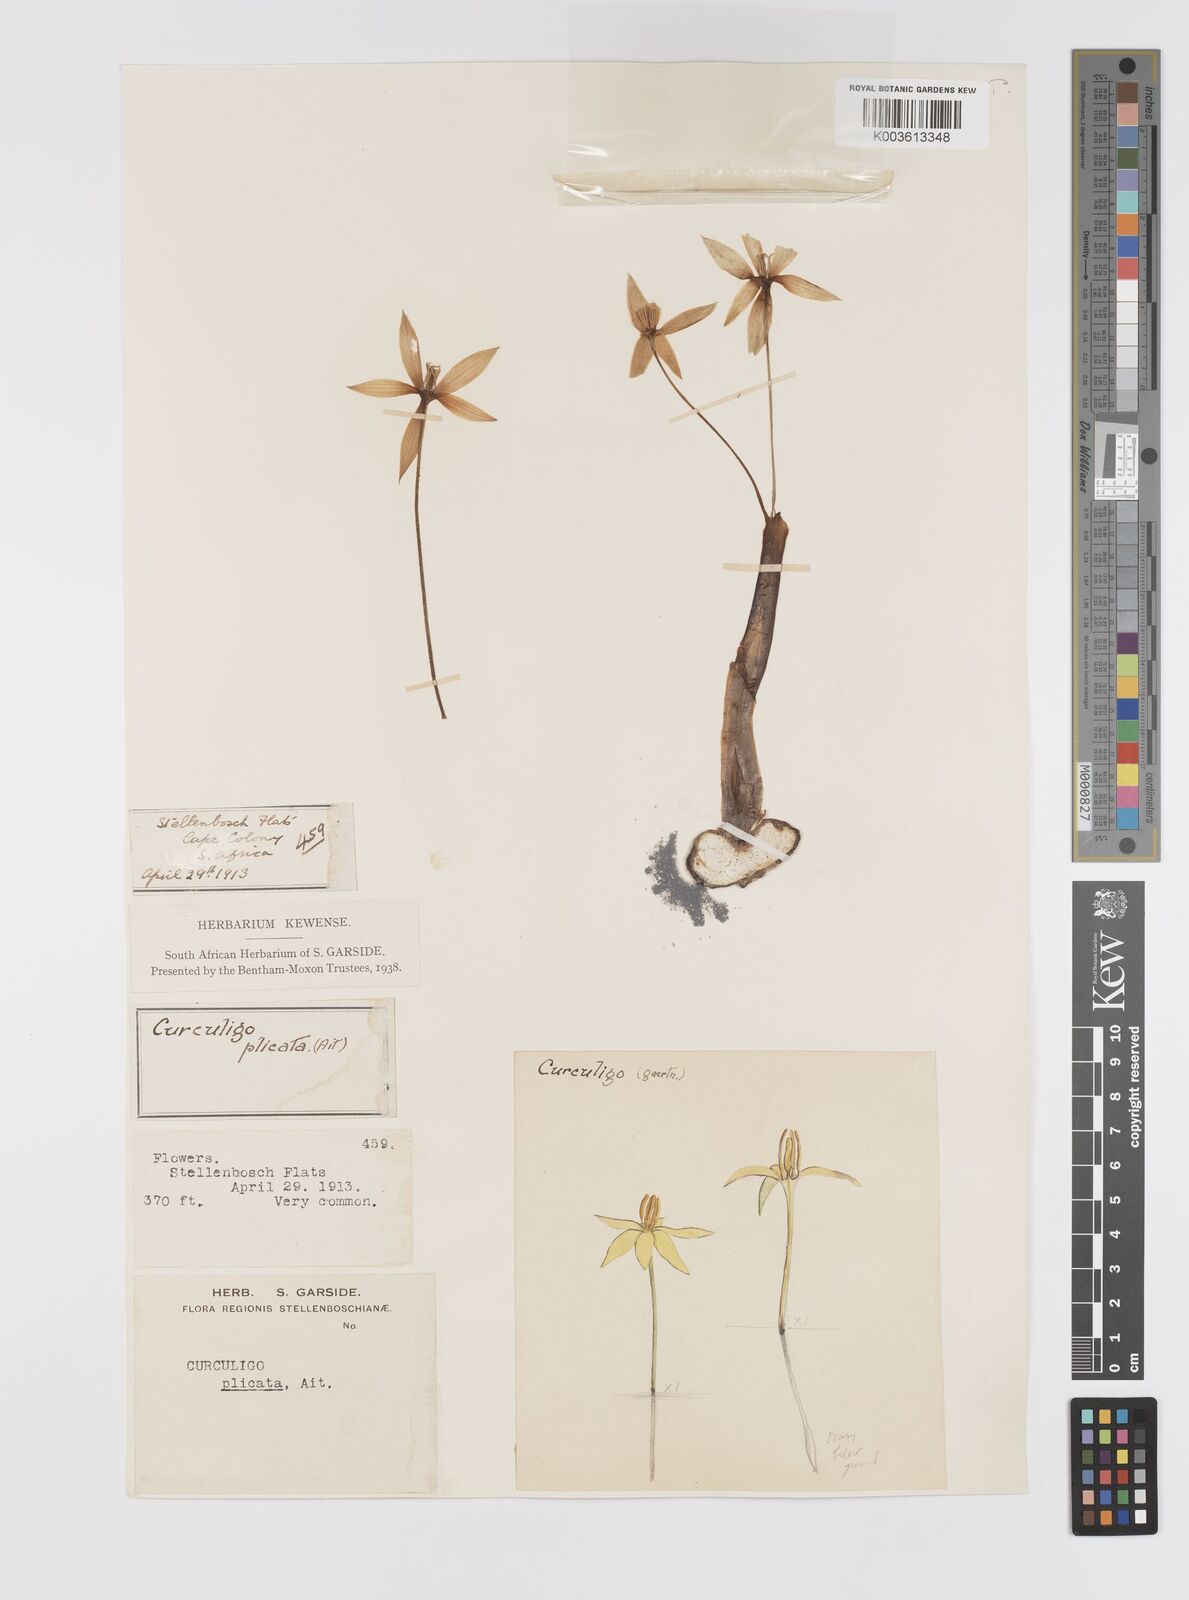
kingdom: Plantae
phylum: Tracheophyta
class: Liliopsida
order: Asparagales
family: Hypoxidaceae
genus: Empodium
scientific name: Empodium plicatum
